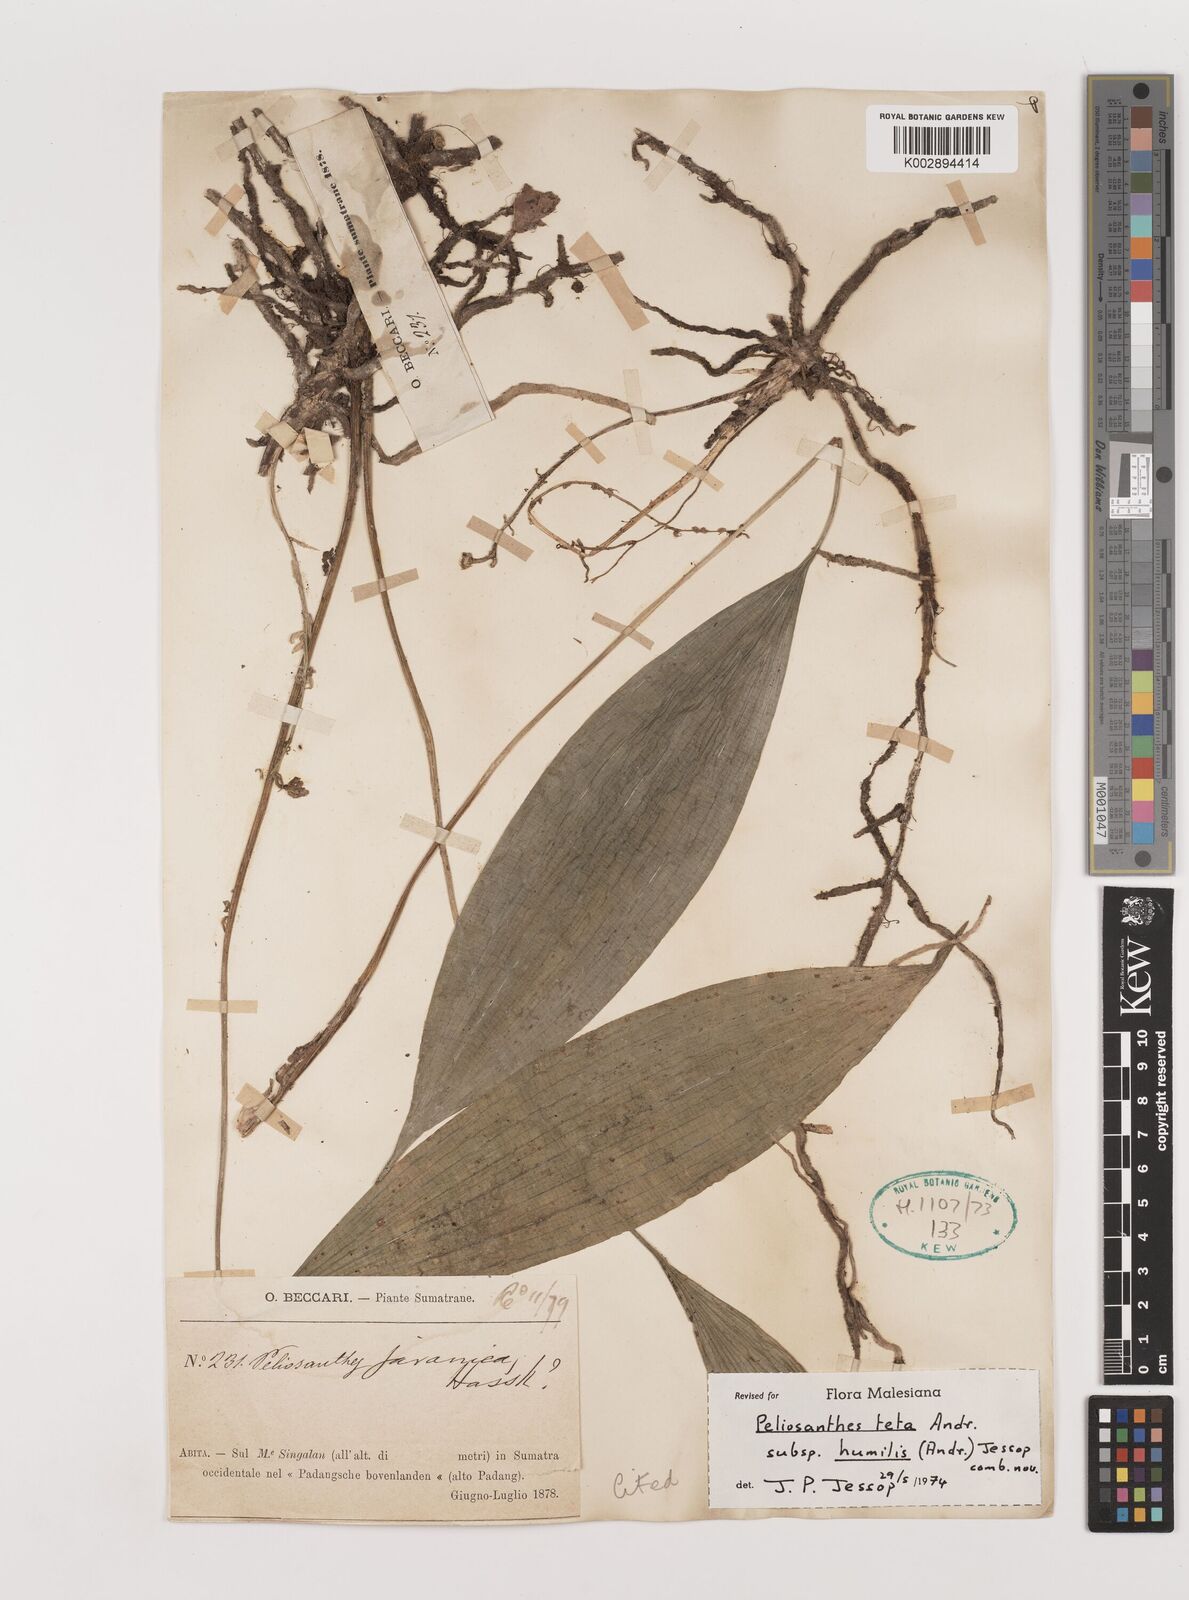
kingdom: Plantae
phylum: Tracheophyta
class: Liliopsida
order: Asparagales
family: Asparagaceae
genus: Peliosanthes
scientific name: Peliosanthes teta
